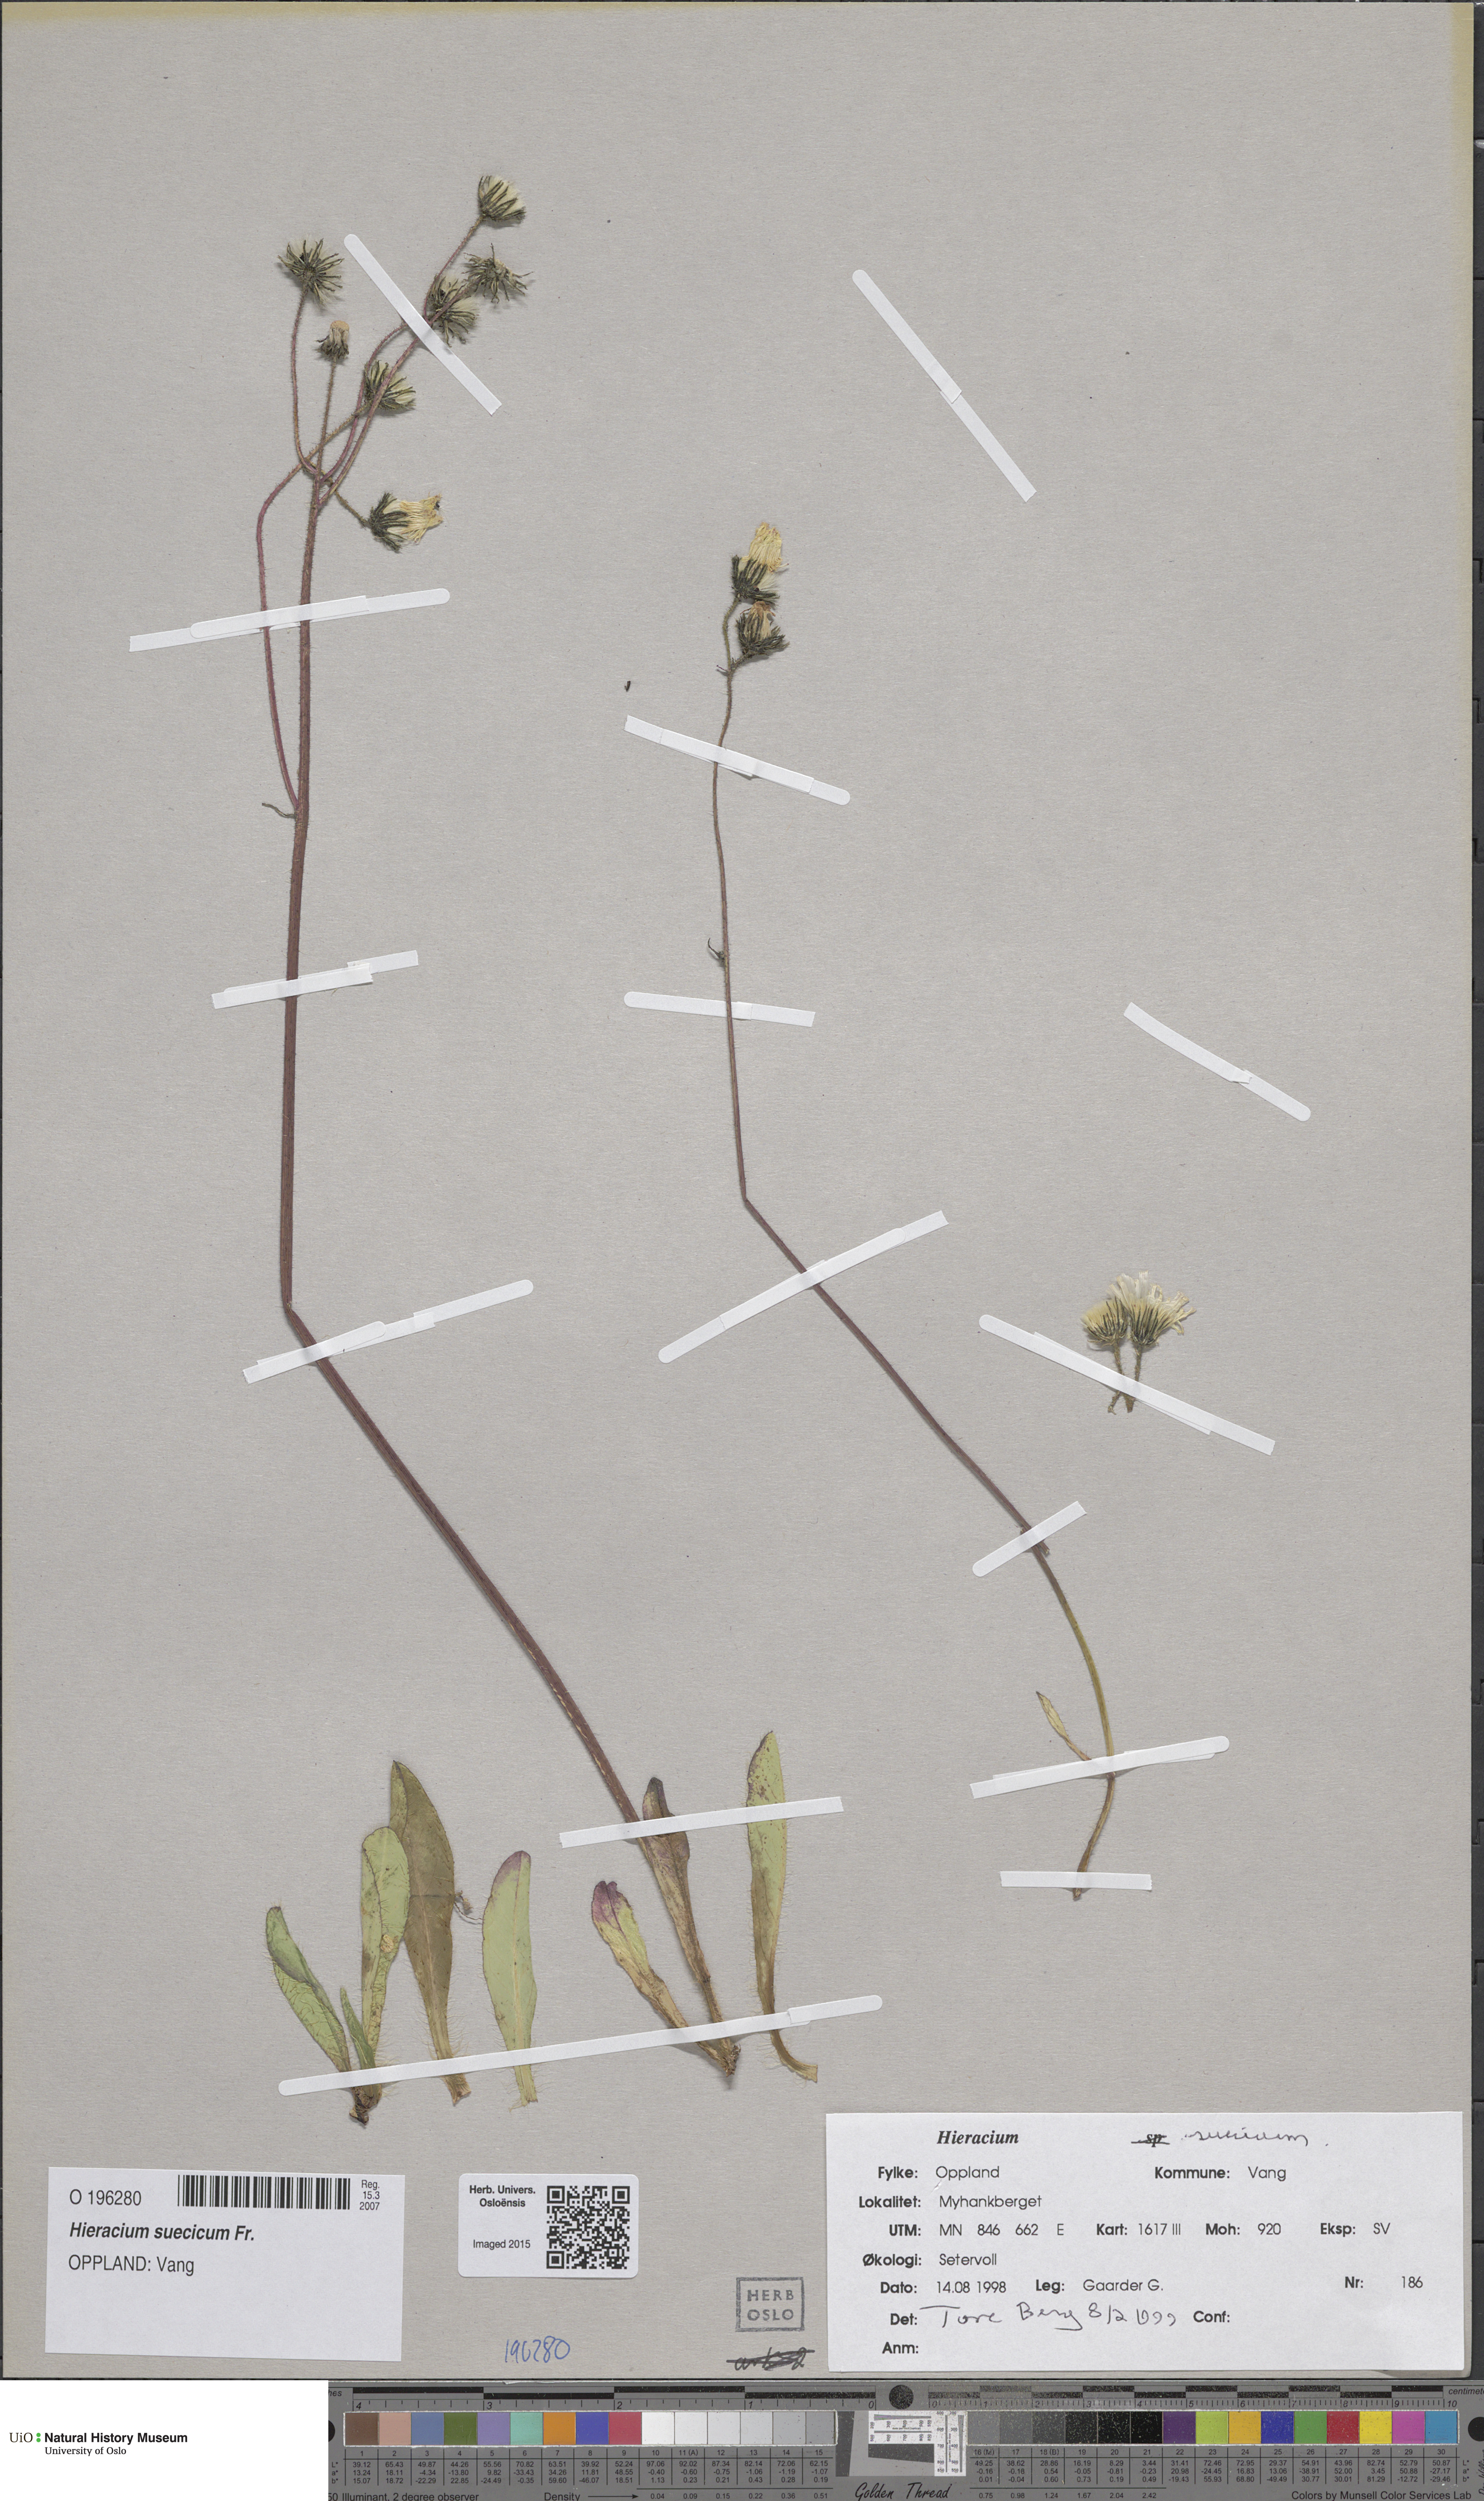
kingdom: Plantae
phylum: Tracheophyta
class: Magnoliopsida
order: Asterales
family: Asteraceae
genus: Pilosella
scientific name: Pilosella dubia
